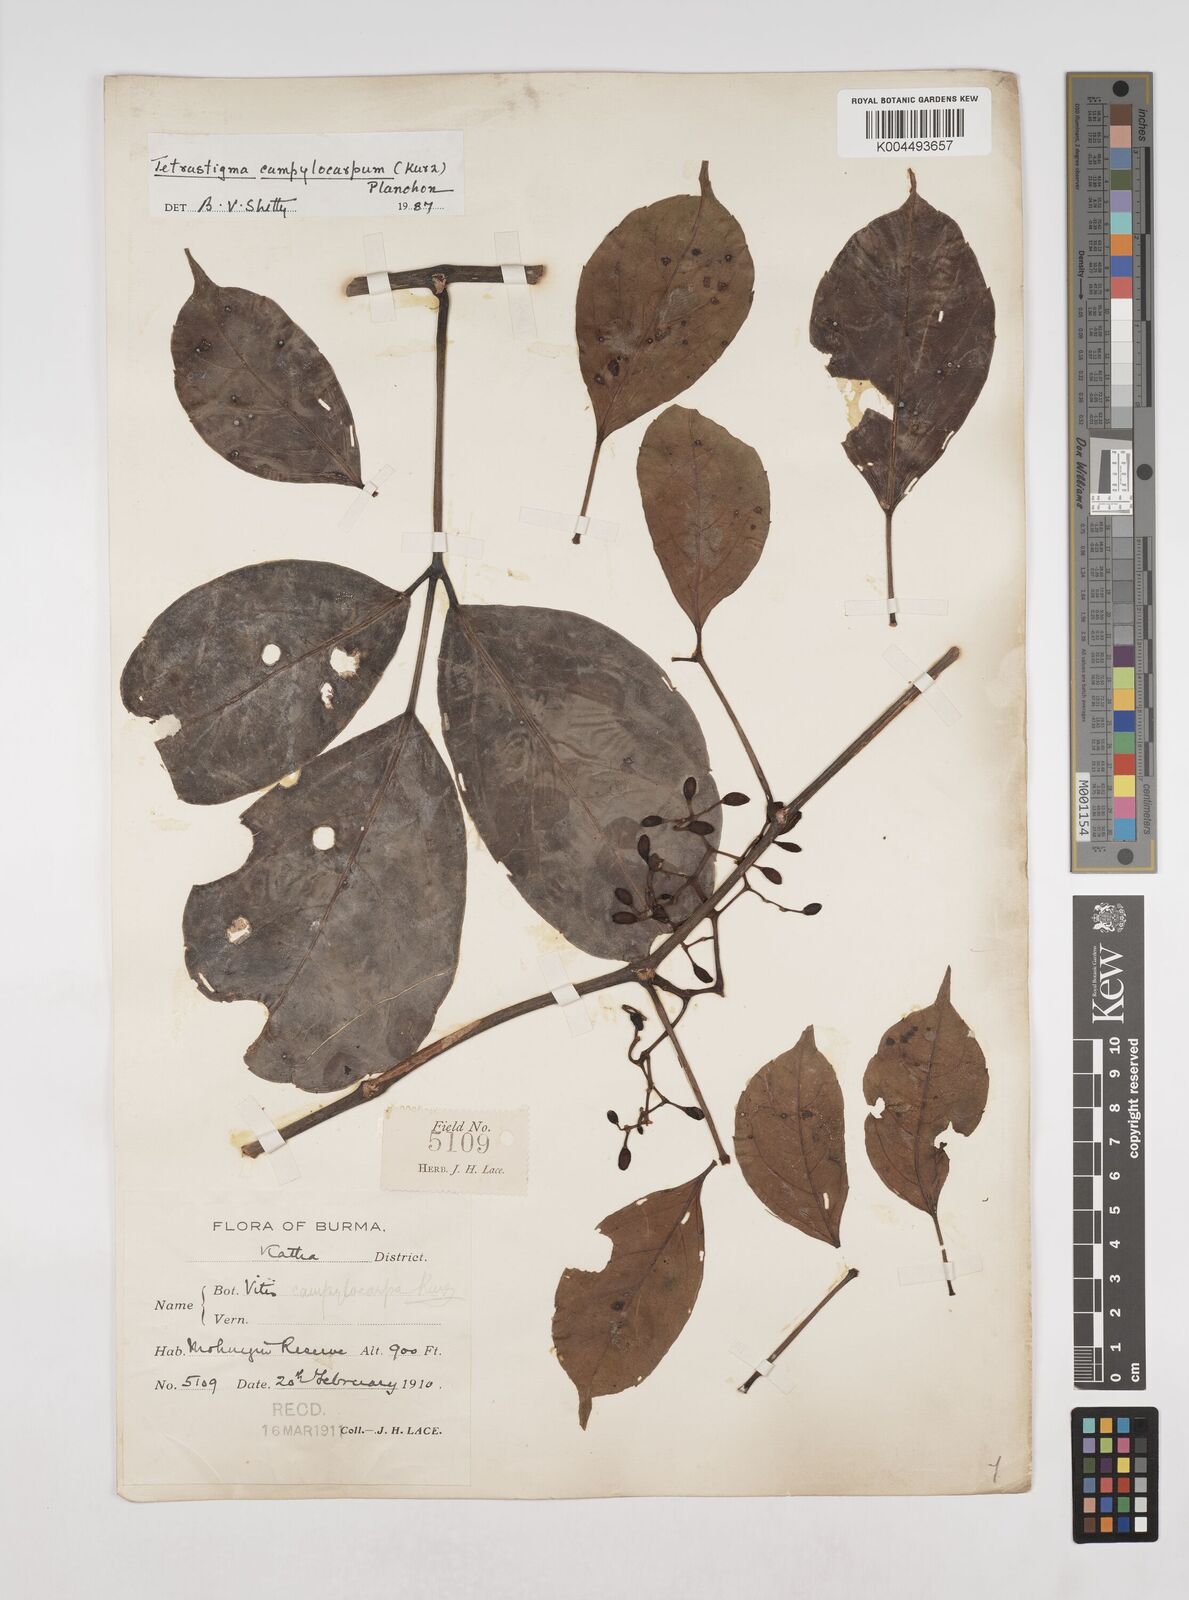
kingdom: Plantae
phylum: Tracheophyta
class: Magnoliopsida
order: Vitales
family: Vitaceae
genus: Tetrastigma
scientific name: Tetrastigma campylocarpum
